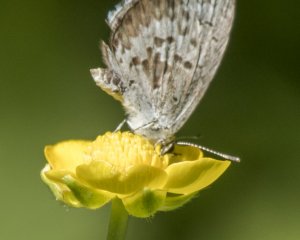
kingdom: Animalia
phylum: Arthropoda
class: Insecta
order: Lepidoptera
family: Lycaenidae
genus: Celastrina
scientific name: Celastrina lucia
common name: Northern Spring Azure
